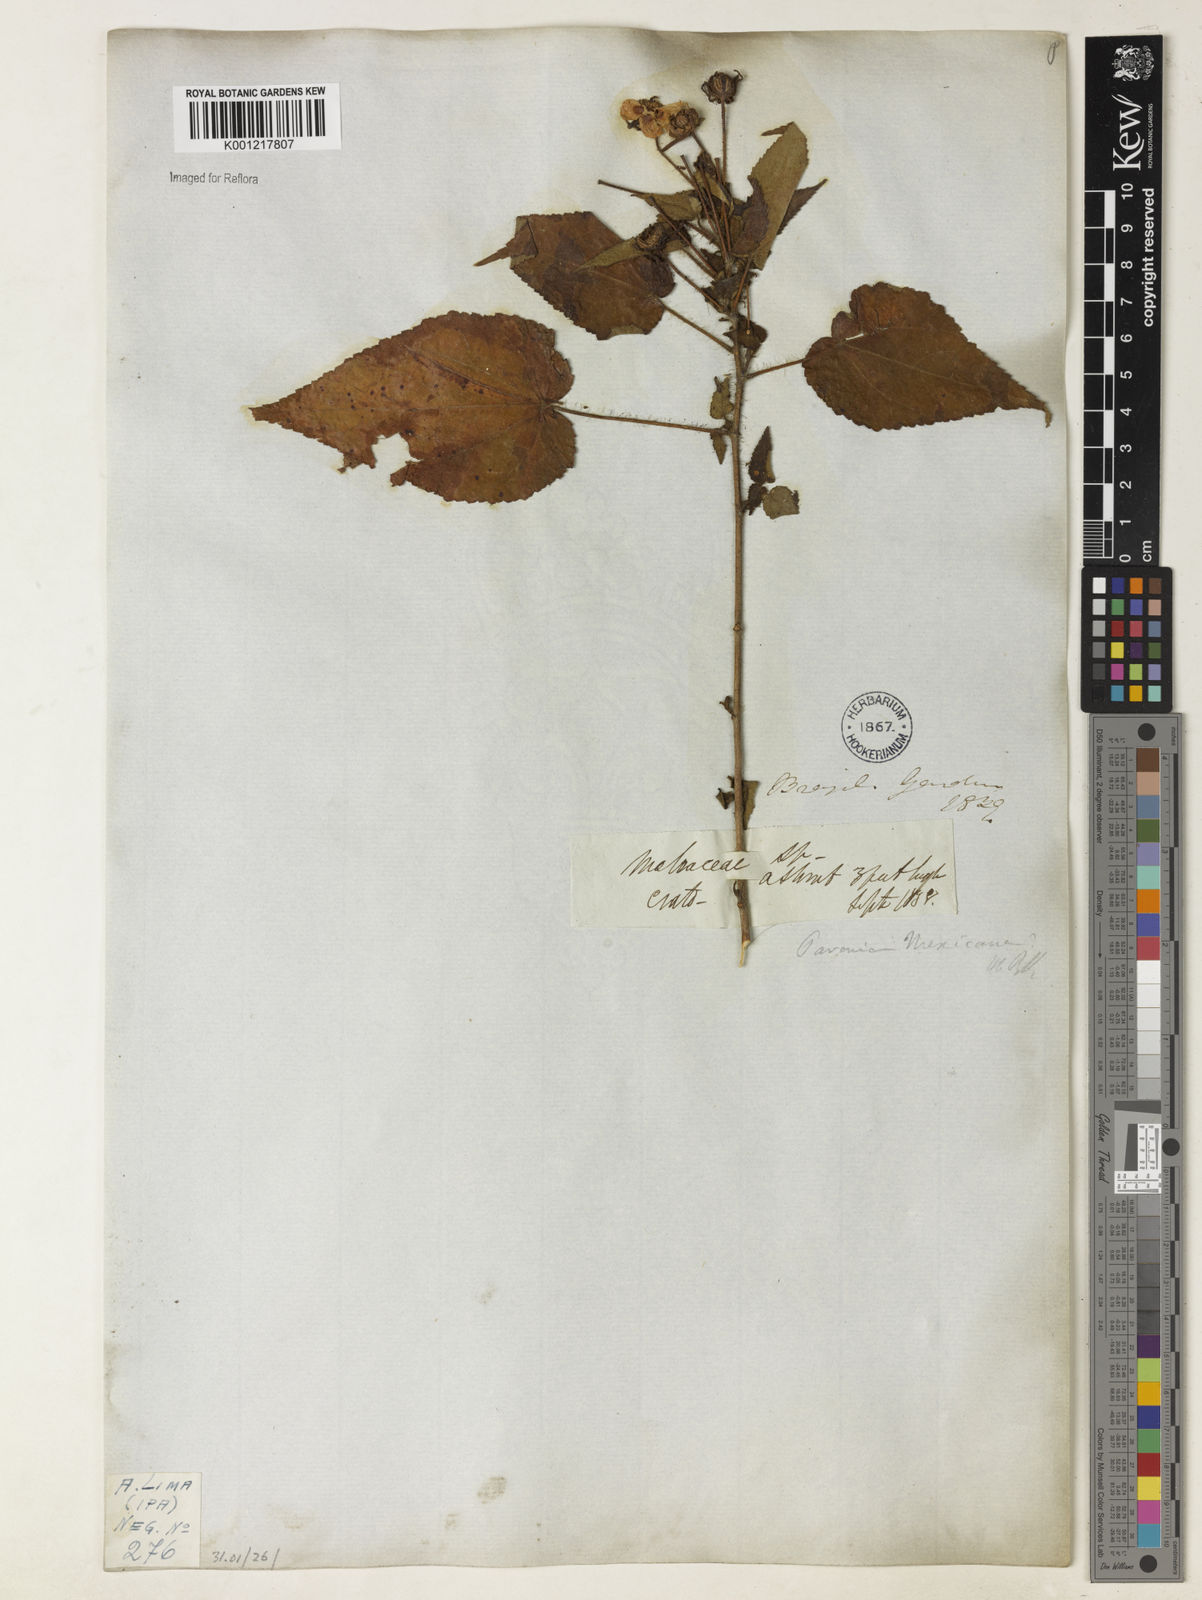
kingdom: Plantae
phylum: Tracheophyta
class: Magnoliopsida
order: Malvales
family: Malvaceae
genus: Pavonia
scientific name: Pavonia
